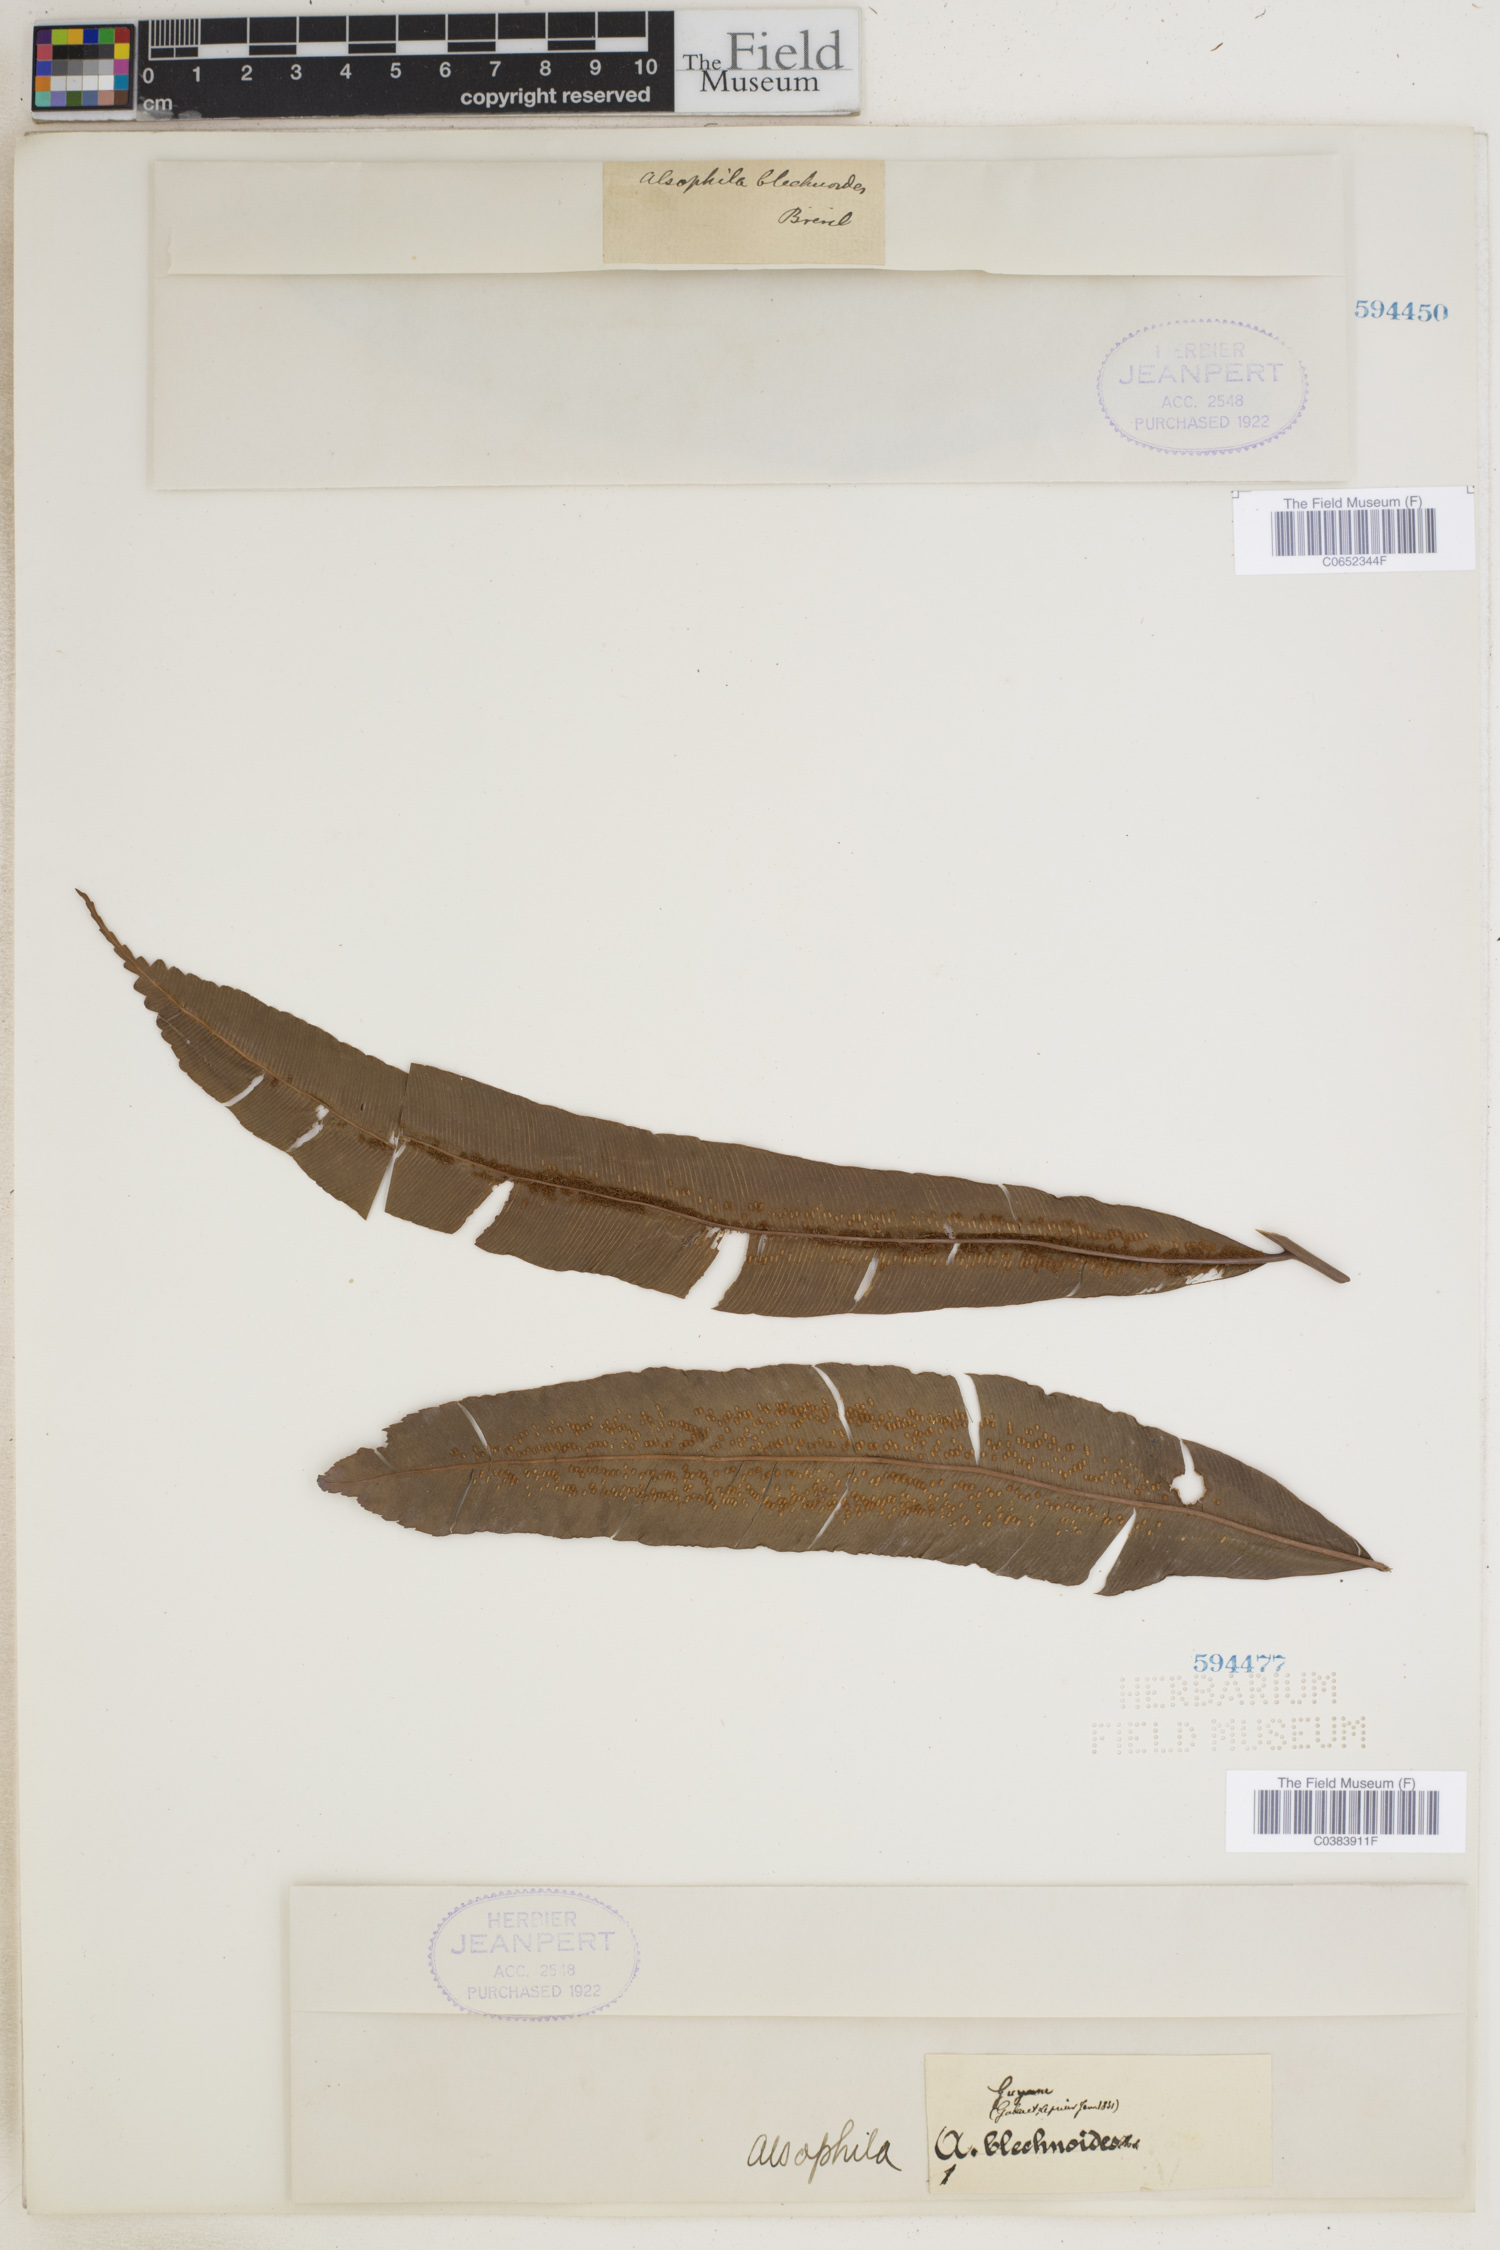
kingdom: Plantae
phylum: Tracheophyta
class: Polypodiopsida
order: Cyatheales
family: Metaxyaceae
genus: Metaxya
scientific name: Metaxya rostrata
